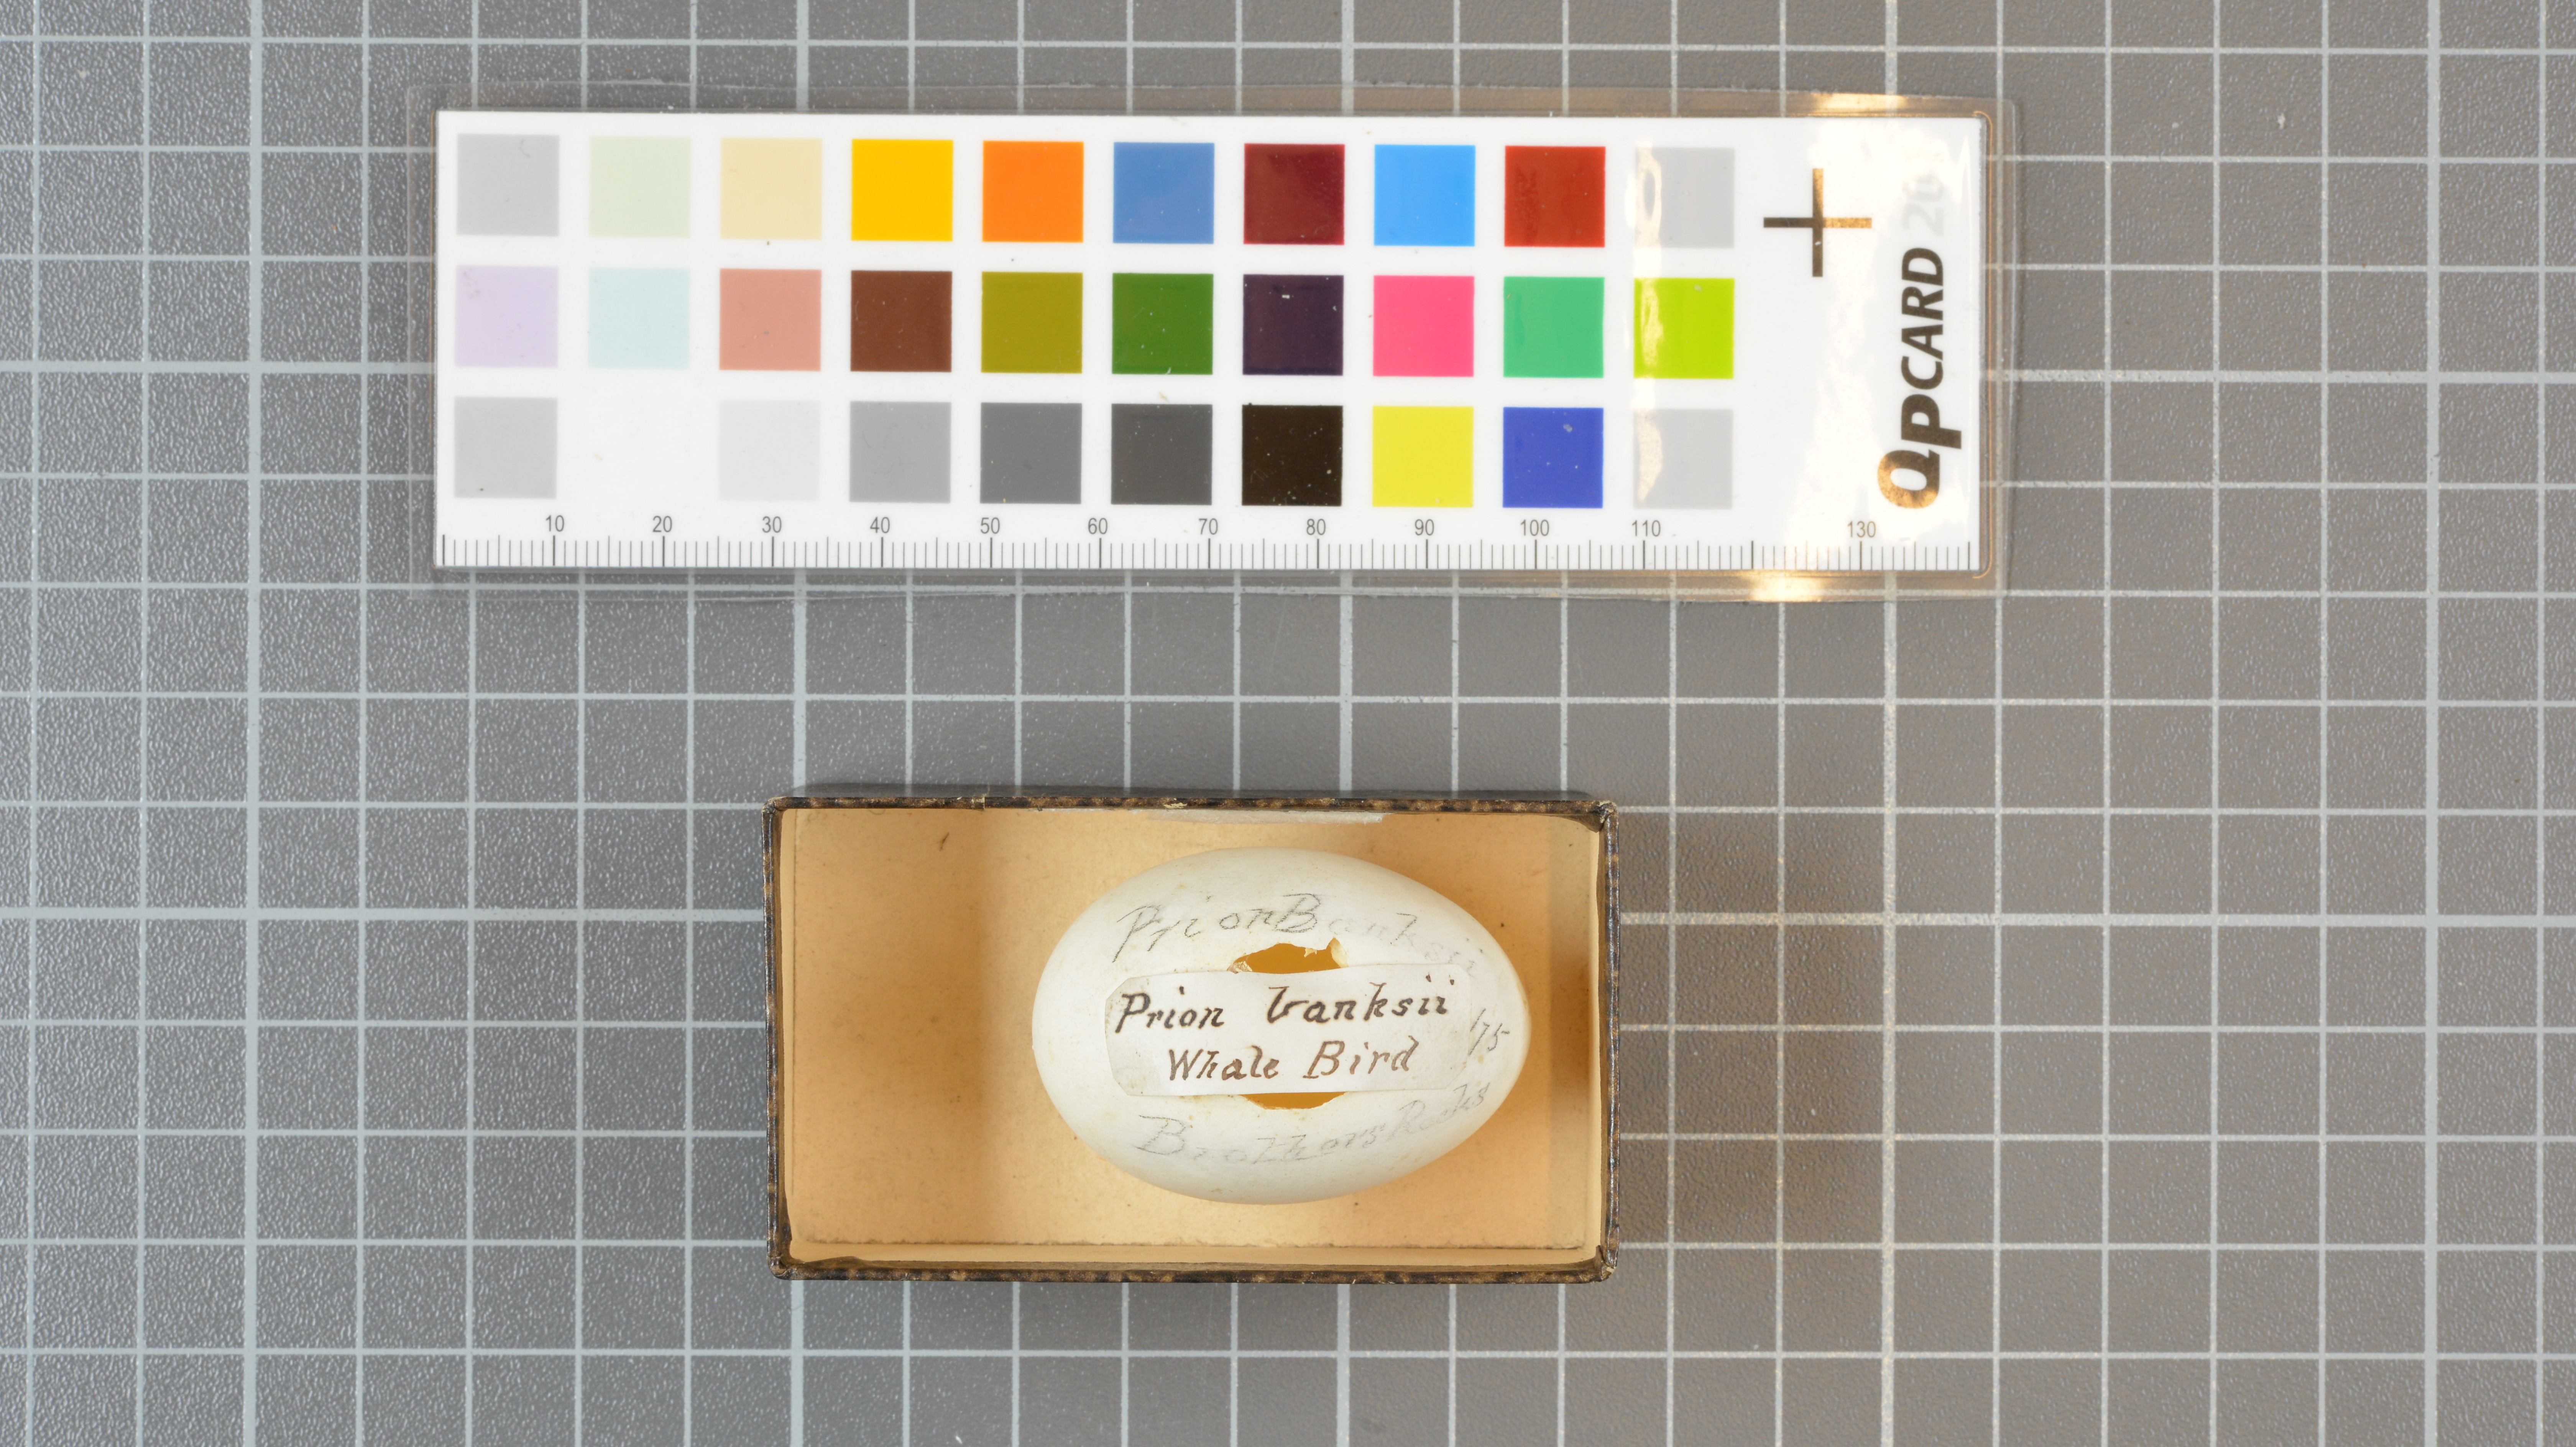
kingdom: Animalia
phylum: Chordata
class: Aves
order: Procellariiformes
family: Procellariidae
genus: Pachyptila
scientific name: Pachyptila desolata
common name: Antarctic prion
